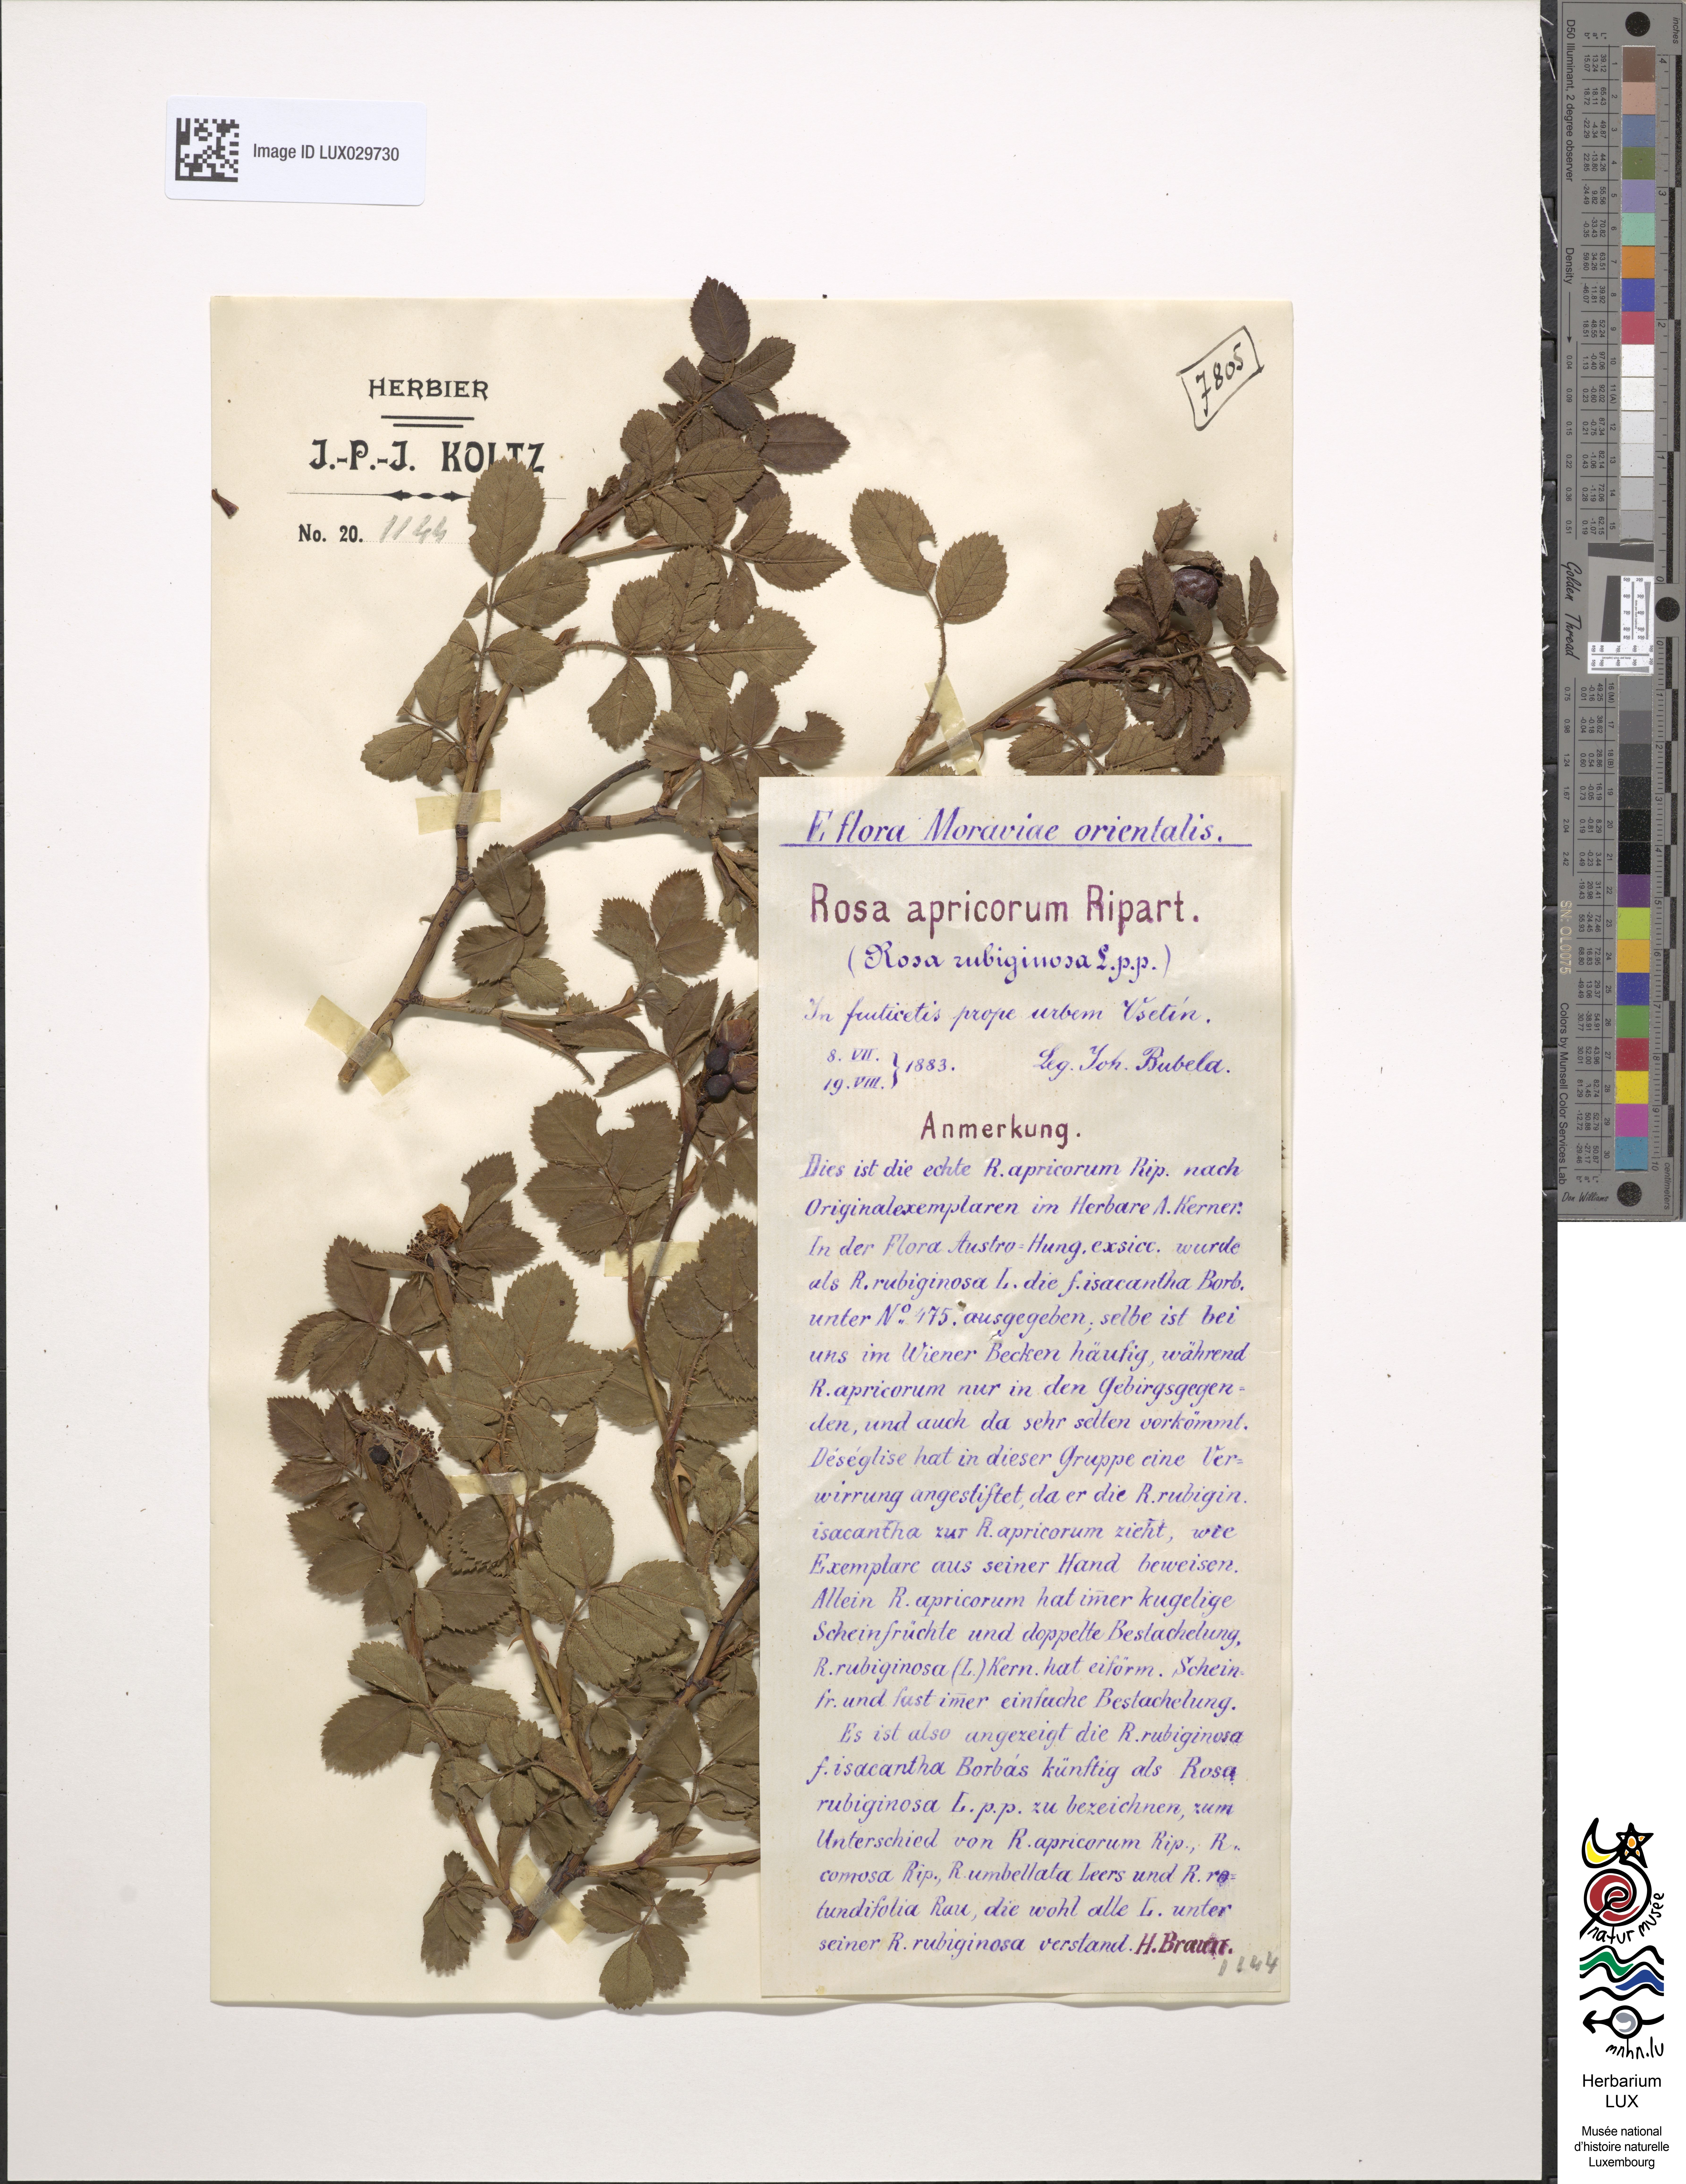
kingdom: Plantae
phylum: Tracheophyta
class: Magnoliopsida
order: Rosales
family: Rosaceae
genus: Rosa
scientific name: Rosa apricorum
